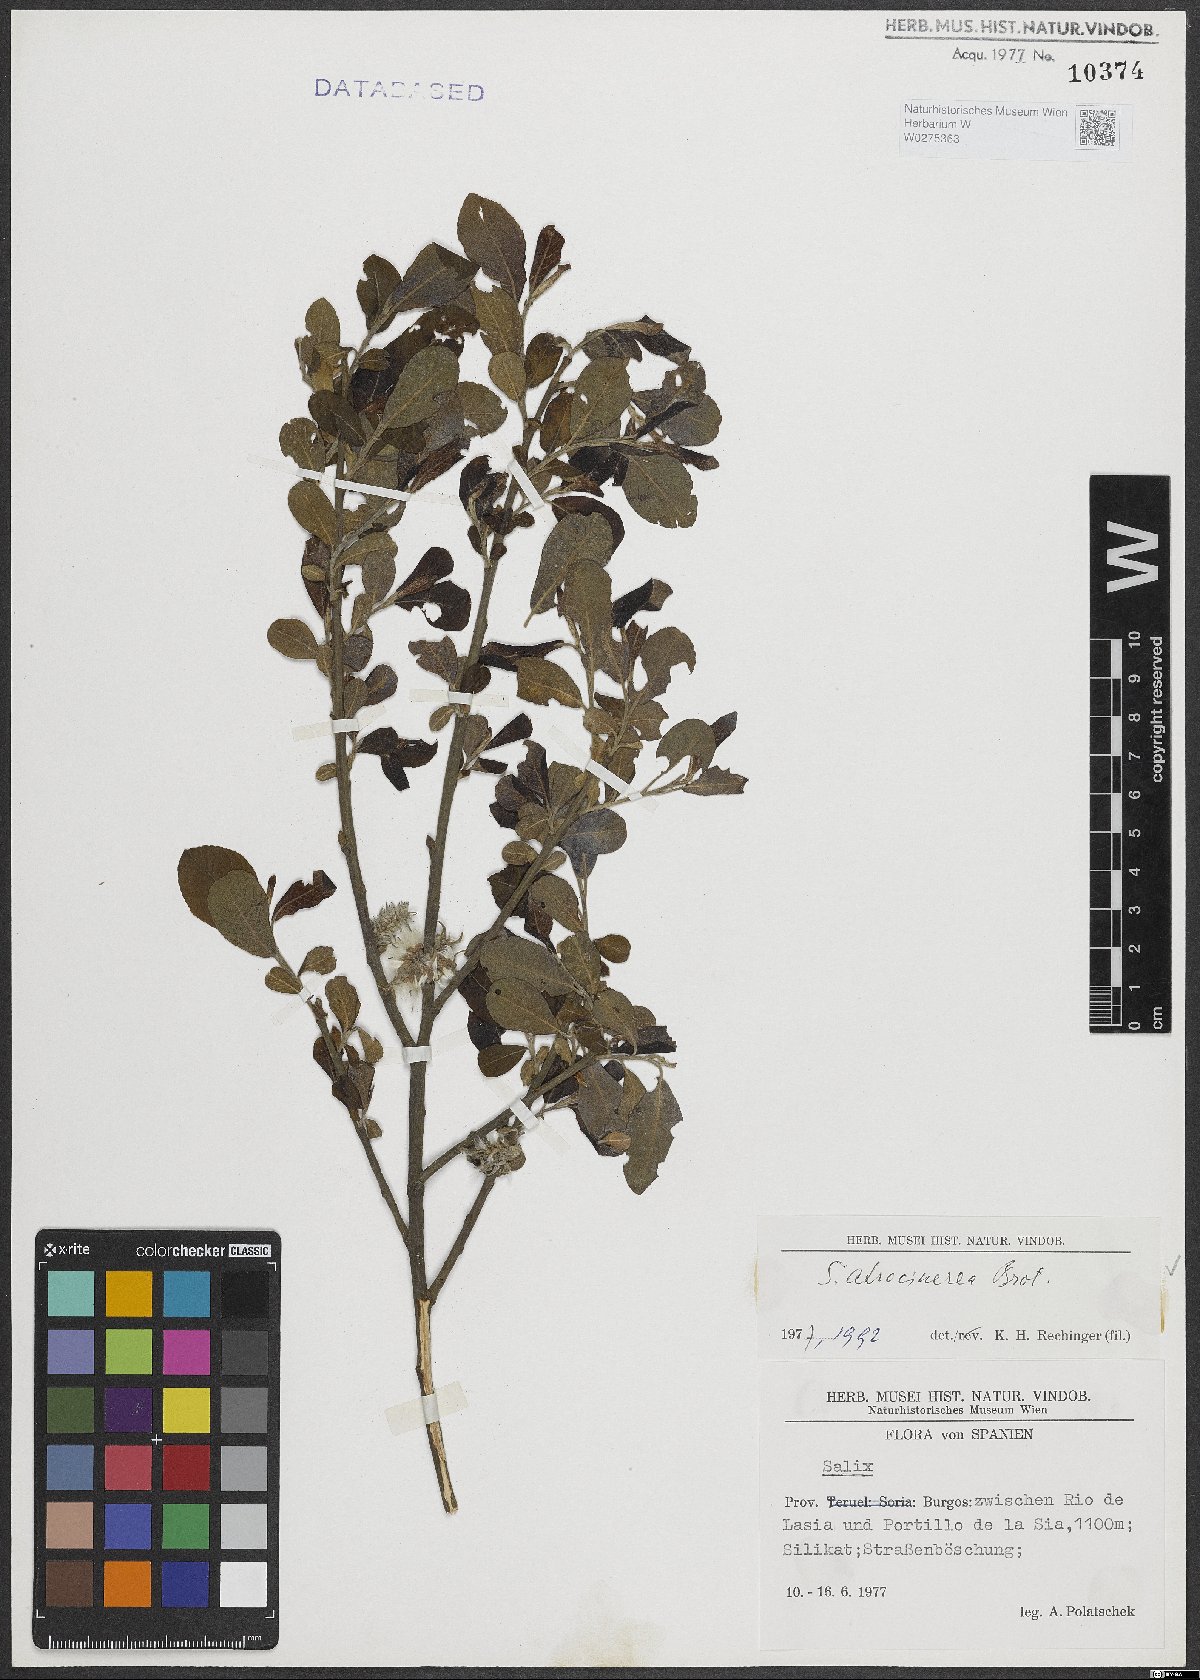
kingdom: Plantae
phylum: Tracheophyta
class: Magnoliopsida
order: Malpighiales
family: Salicaceae
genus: Salix
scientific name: Salix atrocinerea
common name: Rusty willow
